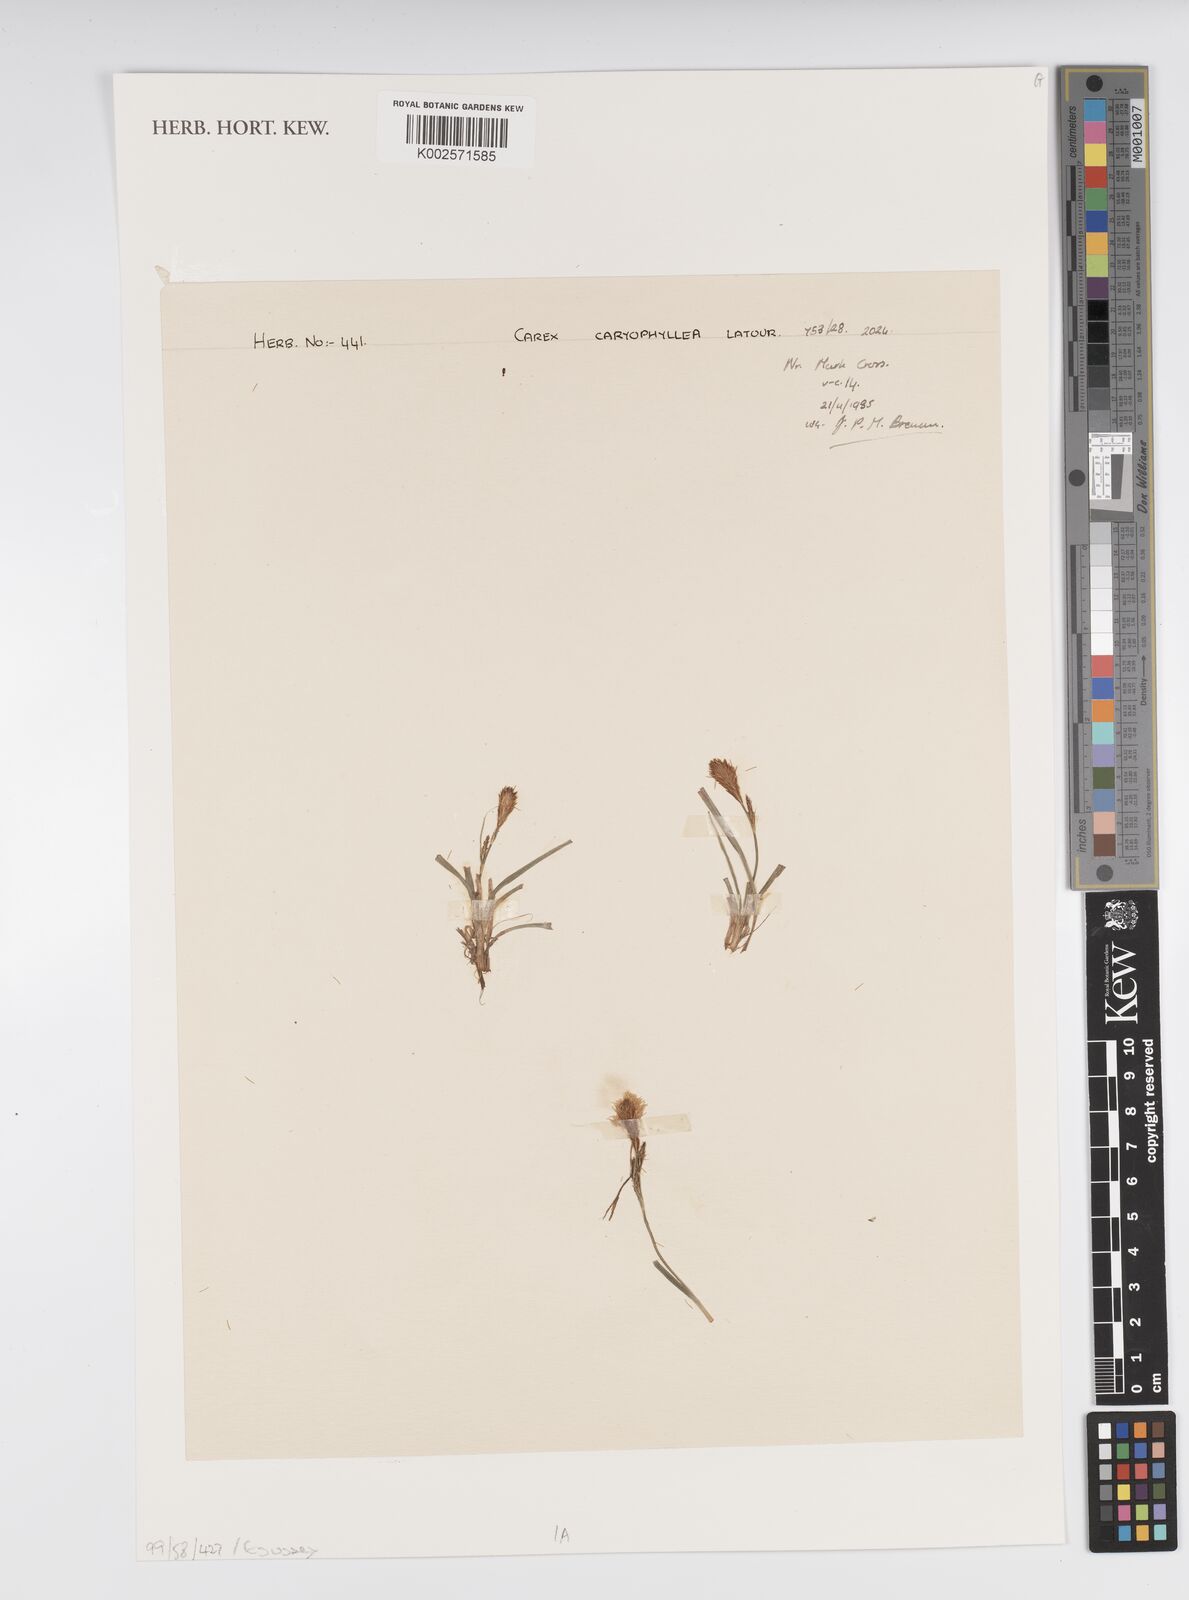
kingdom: Plantae
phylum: Tracheophyta
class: Liliopsida
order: Poales
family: Cyperaceae
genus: Carex
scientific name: Carex caryophyllea
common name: Spring sedge
